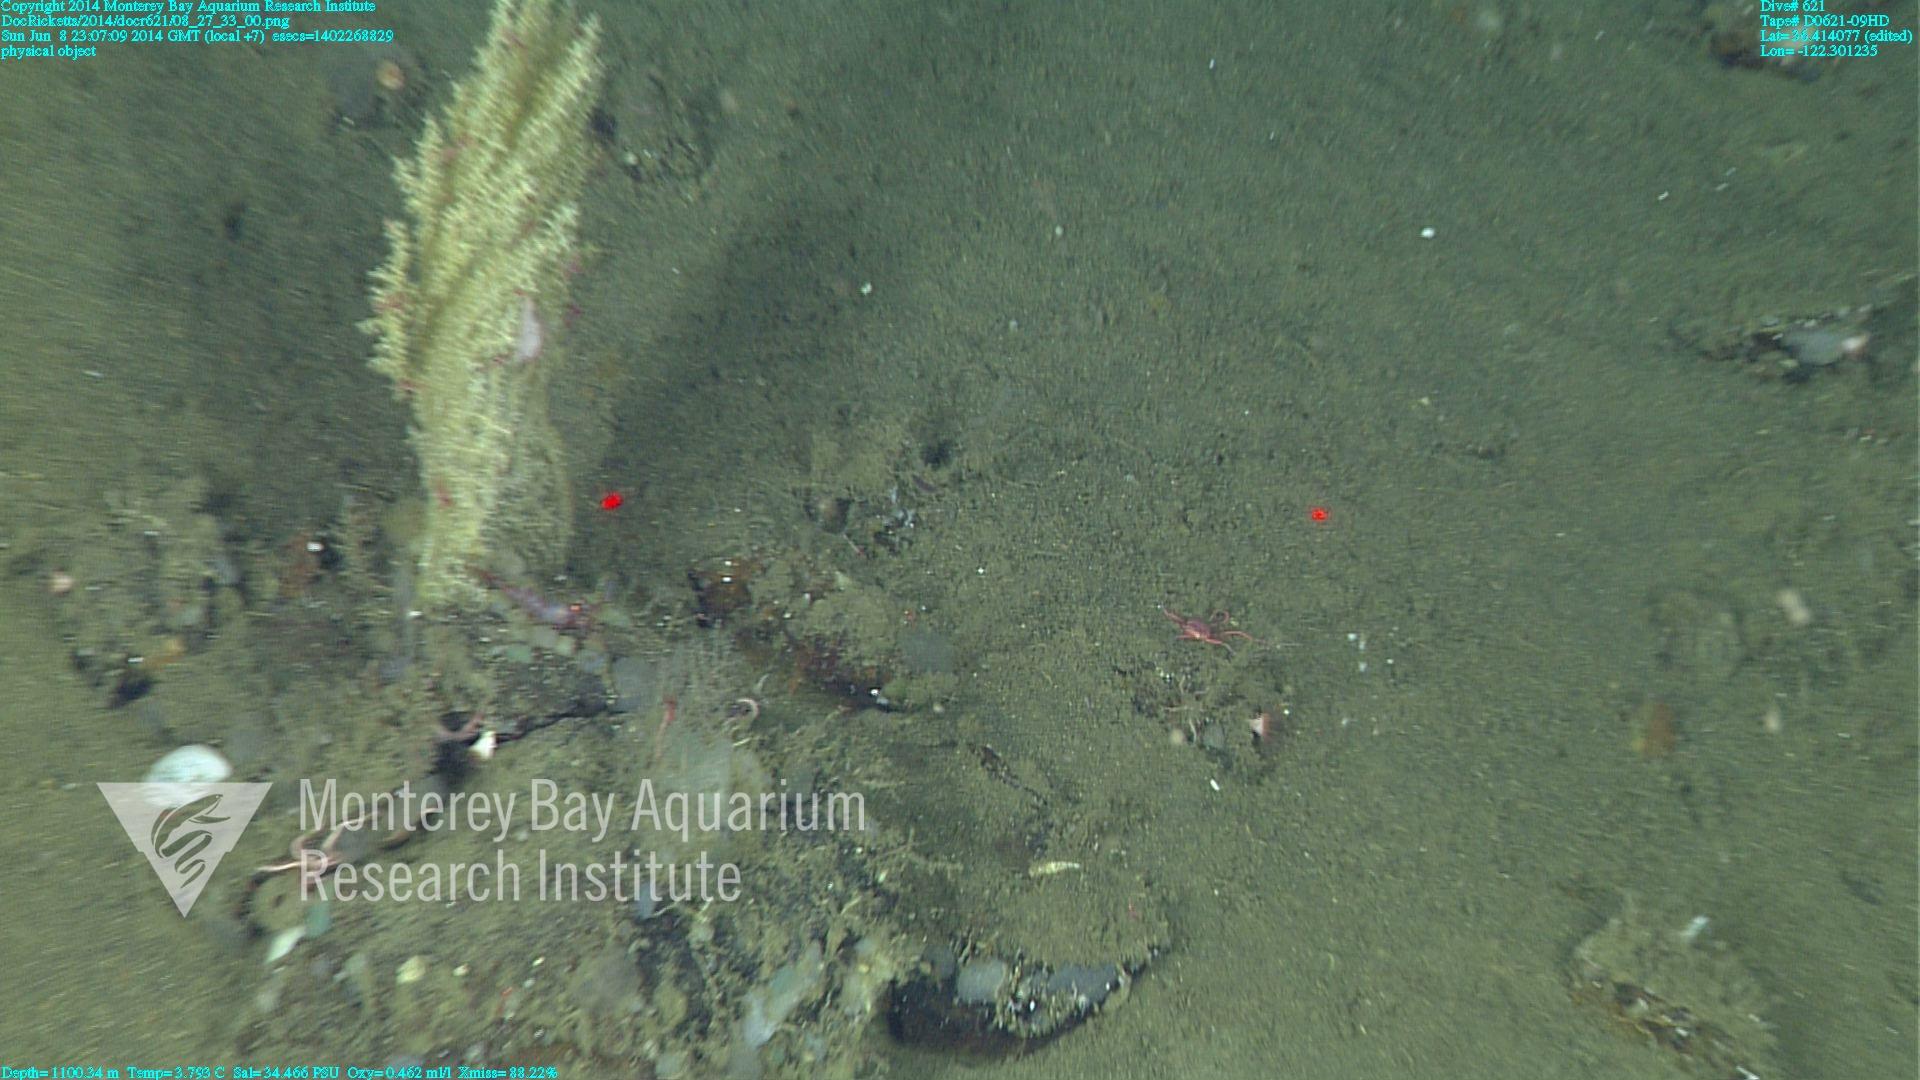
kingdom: Animalia
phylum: Cnidaria
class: Anthozoa
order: Malacalcyonacea
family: Paramuriceidae
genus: Acanthogorgia
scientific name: Acanthogorgia
